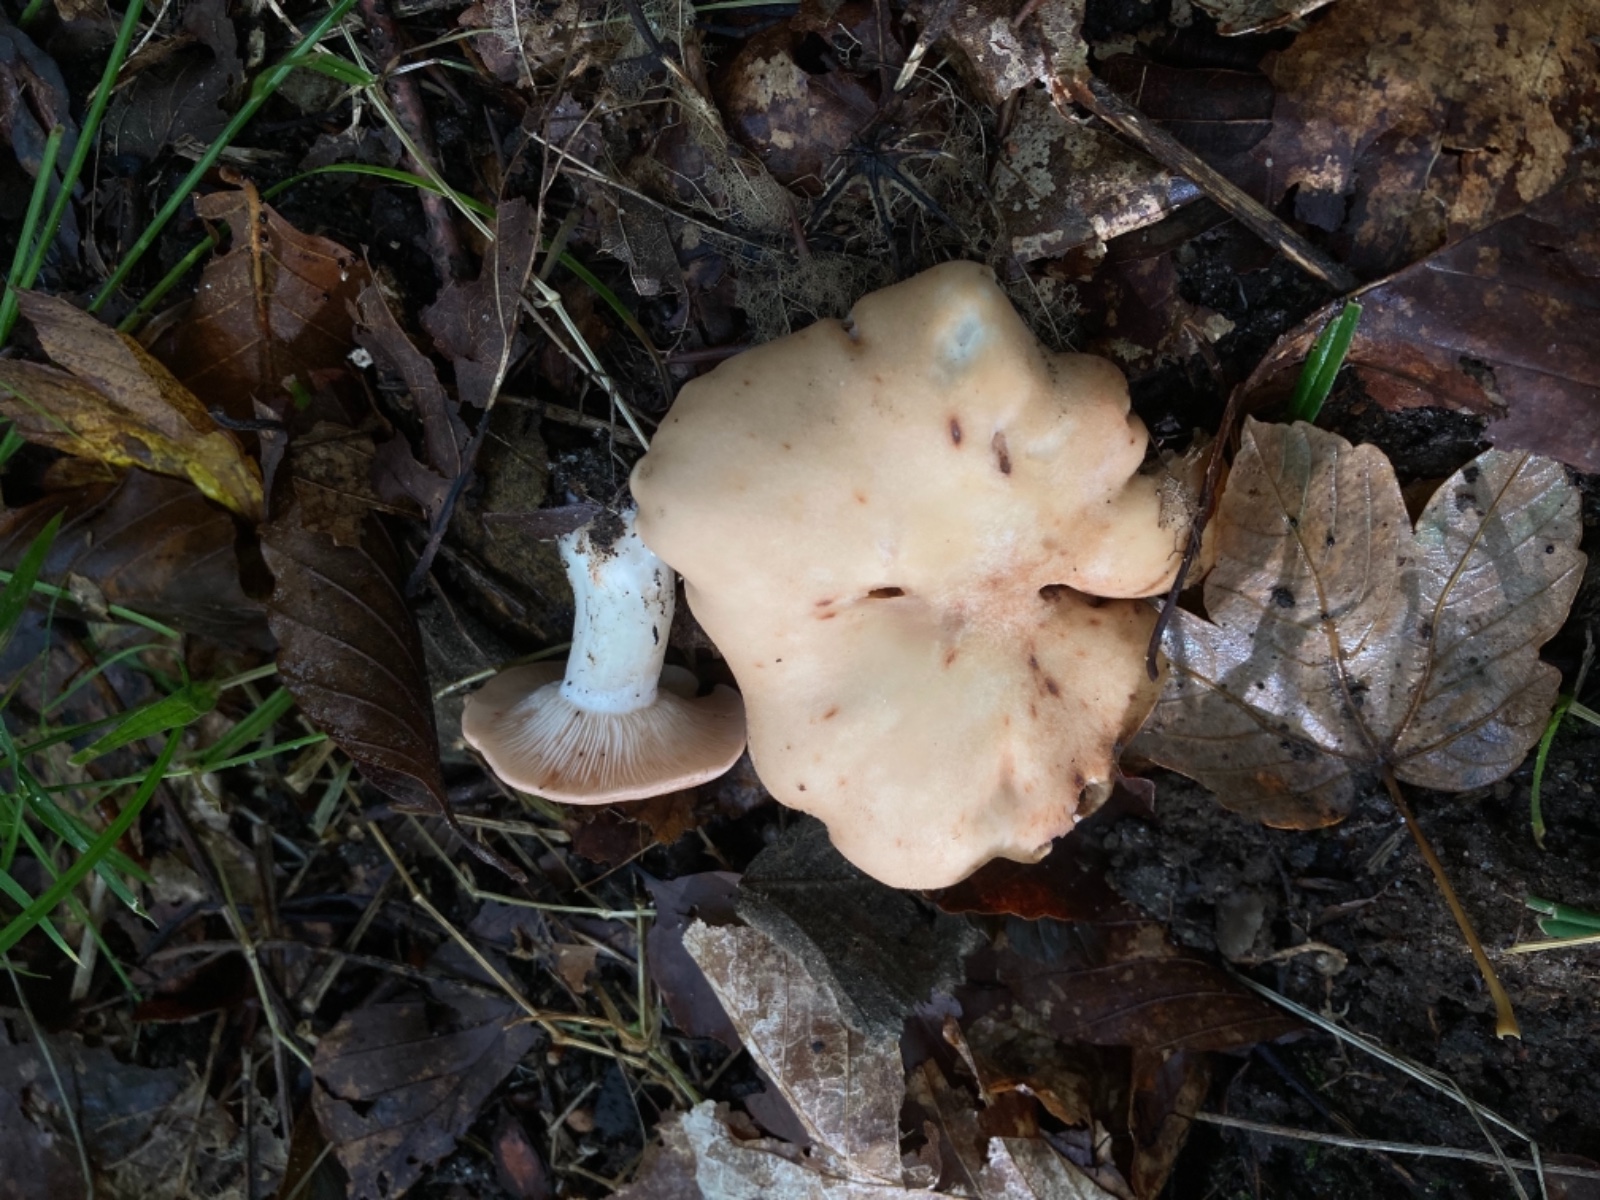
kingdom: Fungi
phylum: Basidiomycota
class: Agaricomycetes
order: Agaricales
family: Entolomataceae
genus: Clitopilus
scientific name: Clitopilus geminus
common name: kødfarvet troldhat
